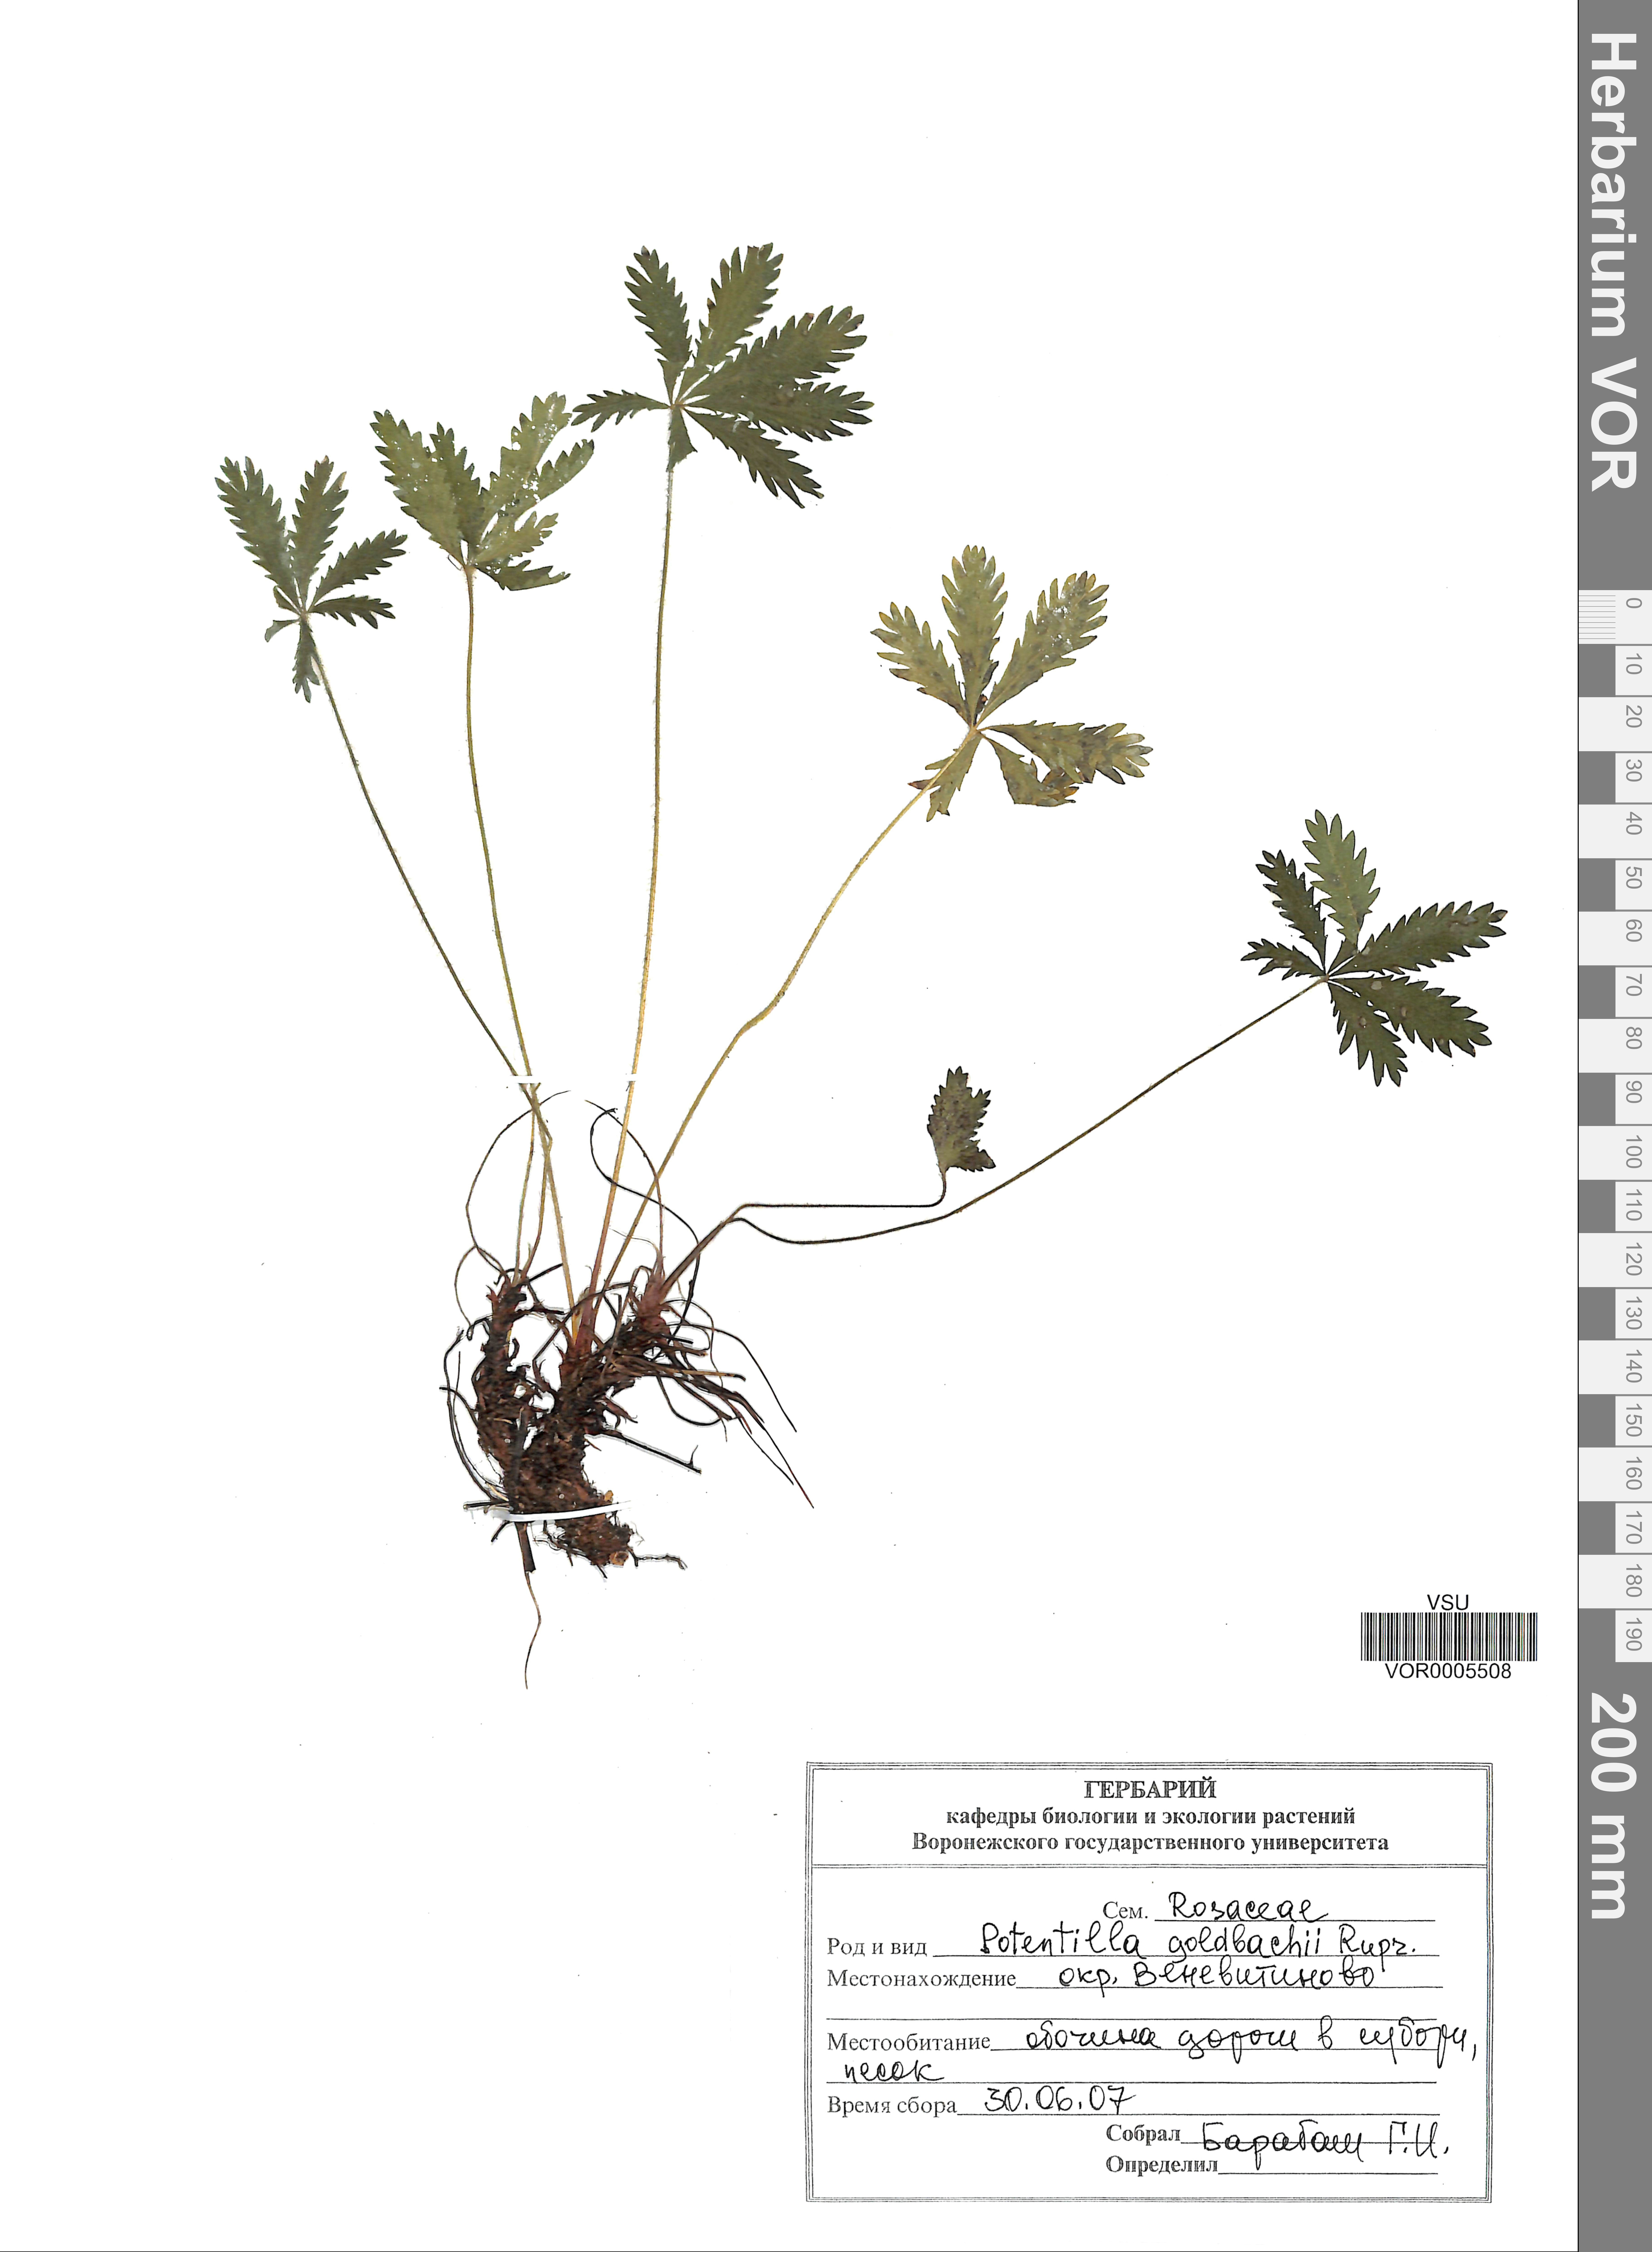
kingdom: Plantae
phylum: Tracheophyta
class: Magnoliopsida
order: Rosales
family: Rosaceae
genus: Potentilla
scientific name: Potentilla thuringiaca
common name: European cinquefoil
